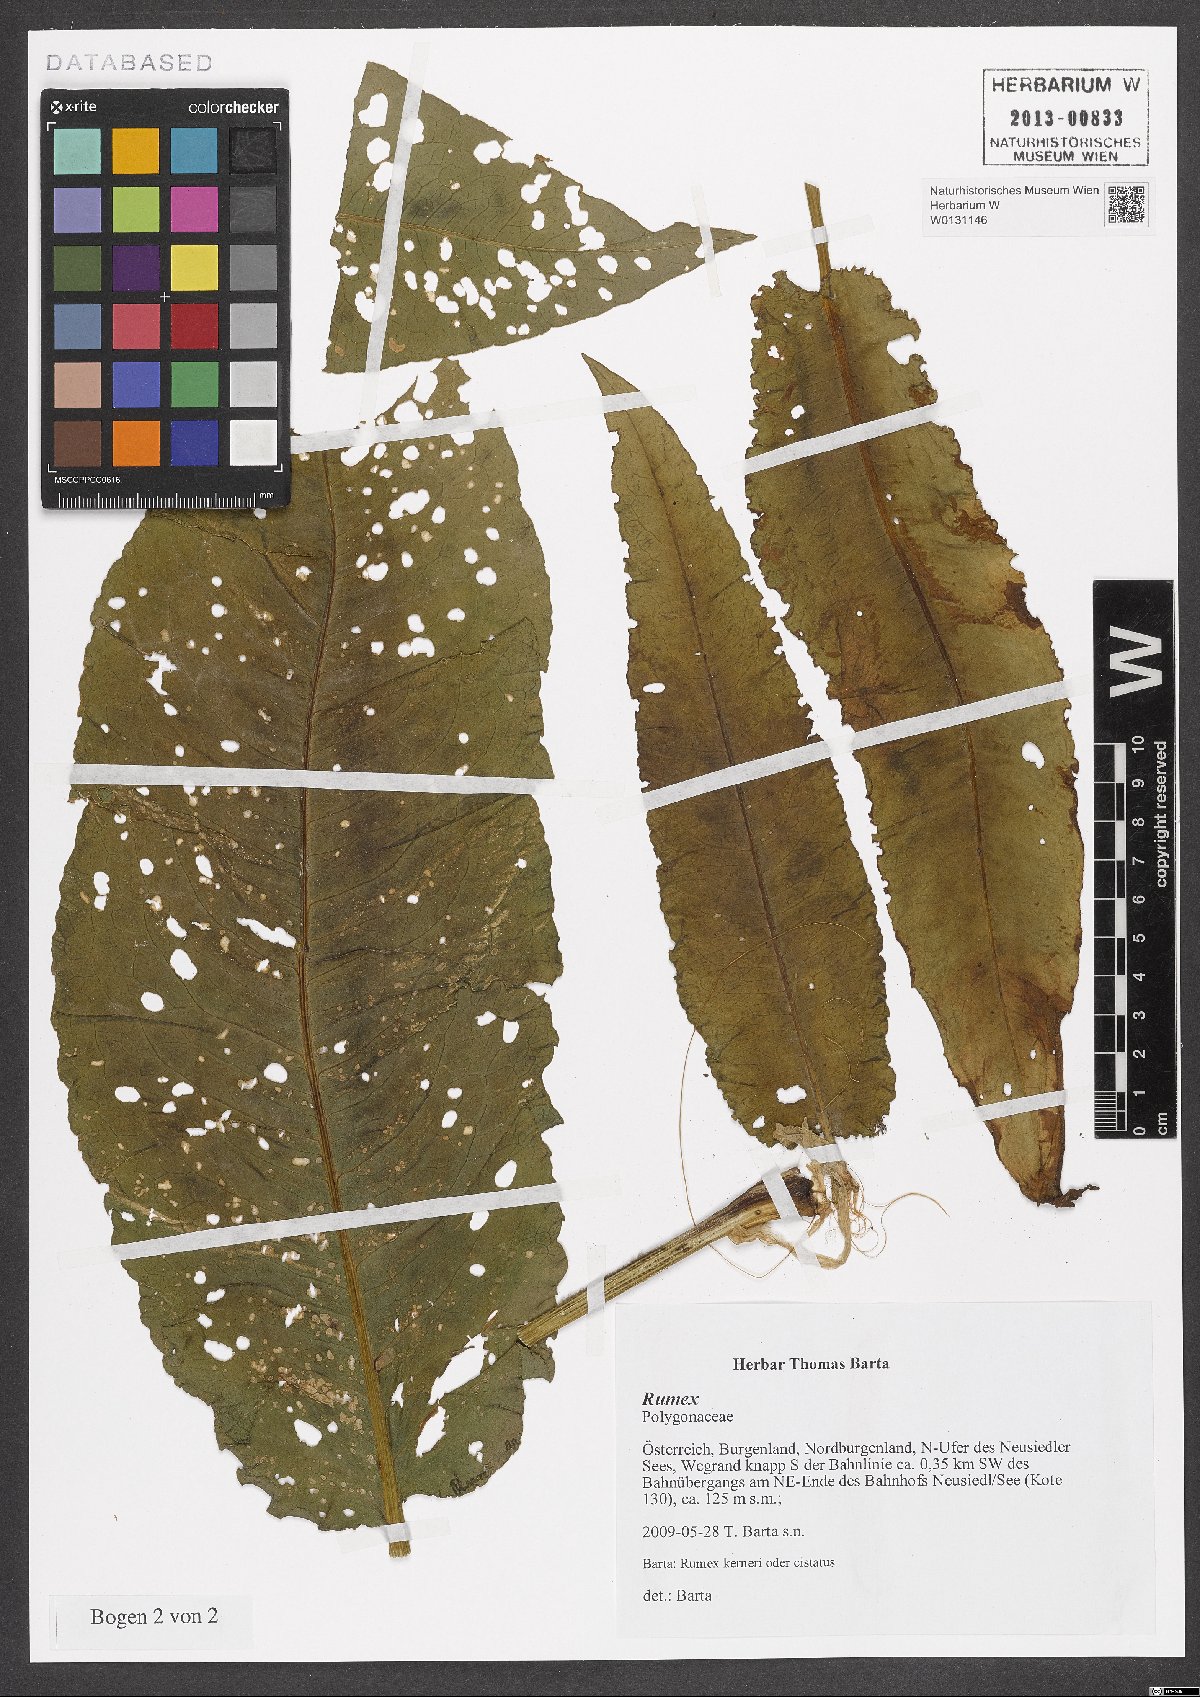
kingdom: Plantae
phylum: Tracheophyta
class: Magnoliopsida
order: Caryophyllales
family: Polygonaceae
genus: Rumex
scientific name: Rumex
